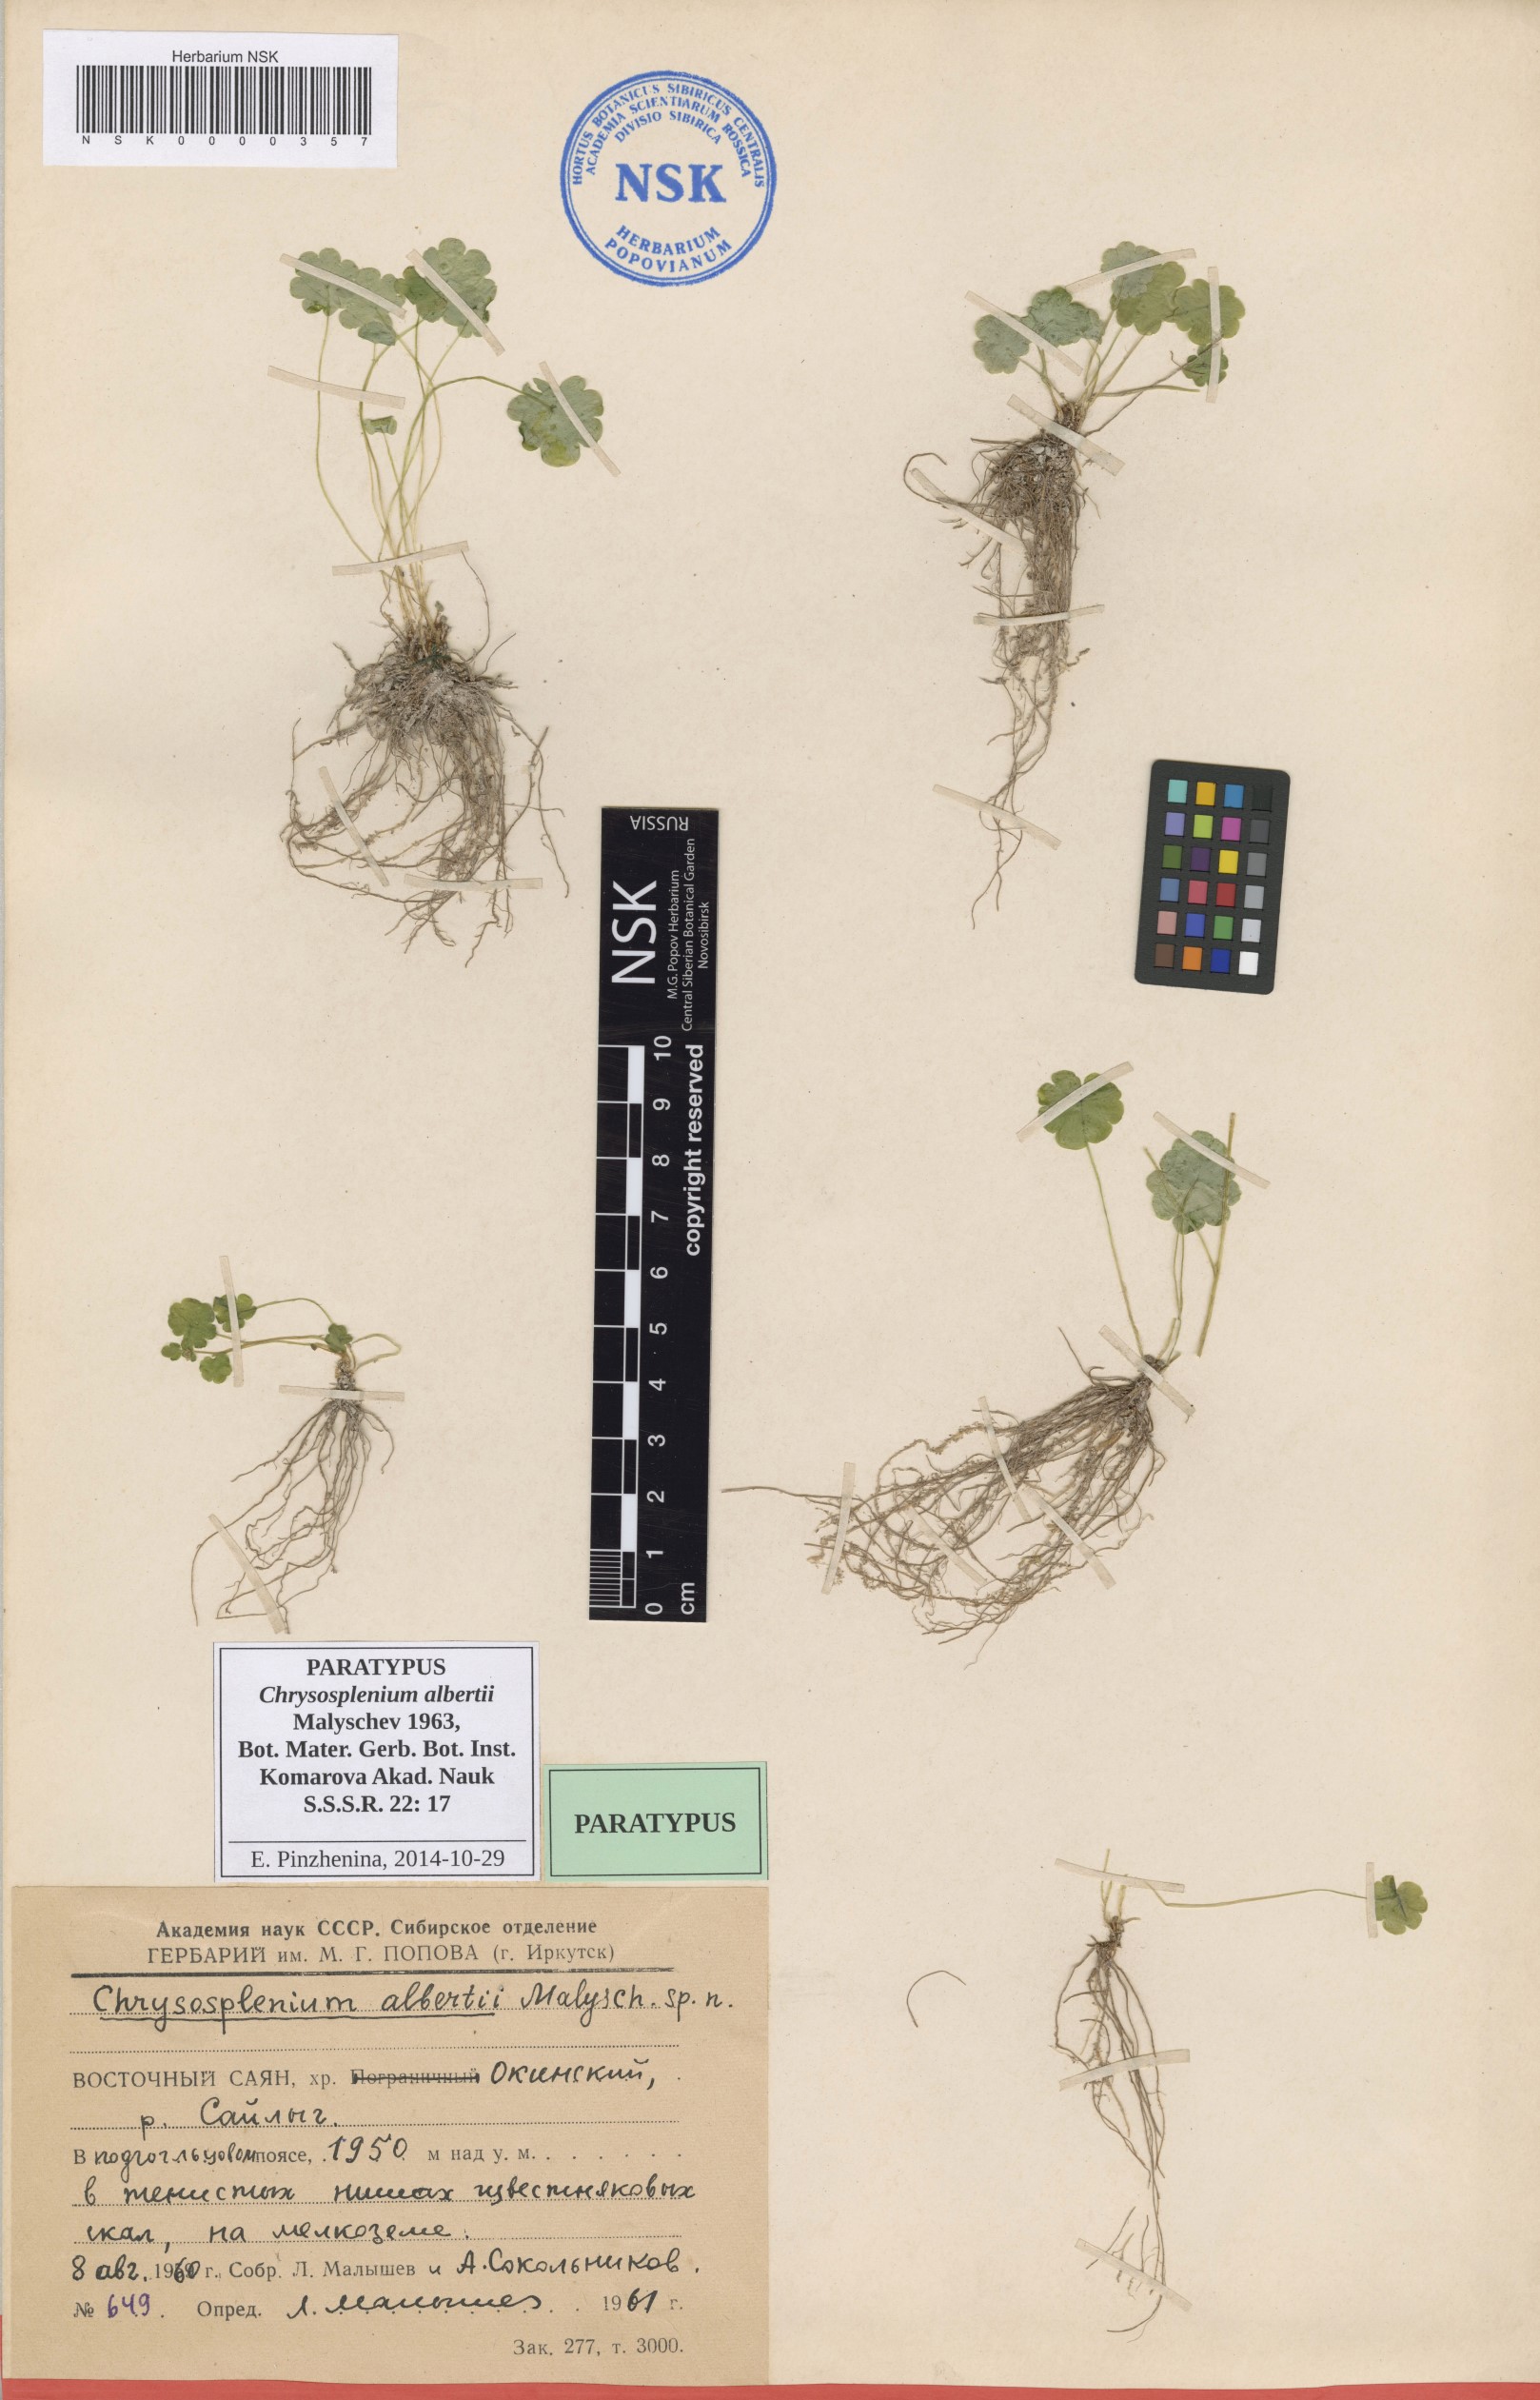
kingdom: Plantae
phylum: Tracheophyta
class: Magnoliopsida
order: Saxifragales
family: Saxifragaceae
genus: Chrysosplenium
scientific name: Chrysosplenium albertii
